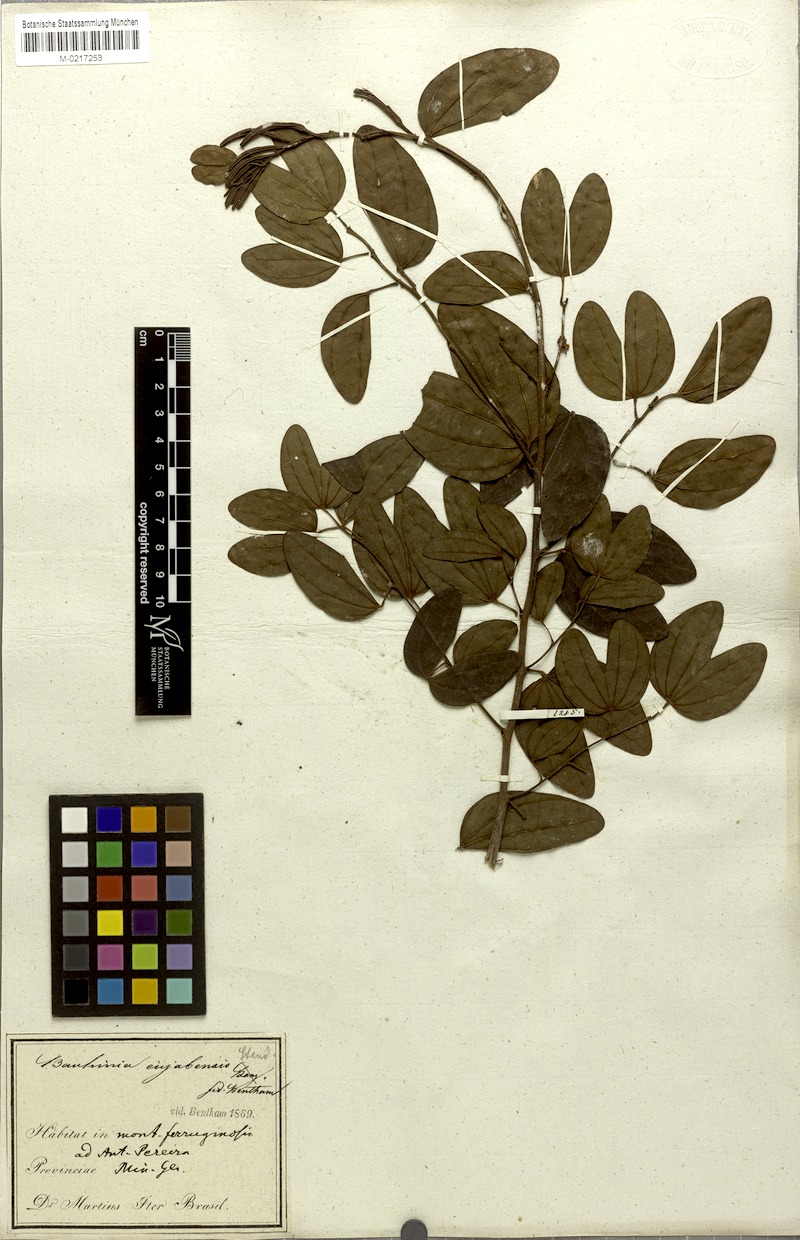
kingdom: Plantae
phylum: Tracheophyta
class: Magnoliopsida
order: Fabales
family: Fabaceae
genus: Bauhinia
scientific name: Bauhinia ungulata
